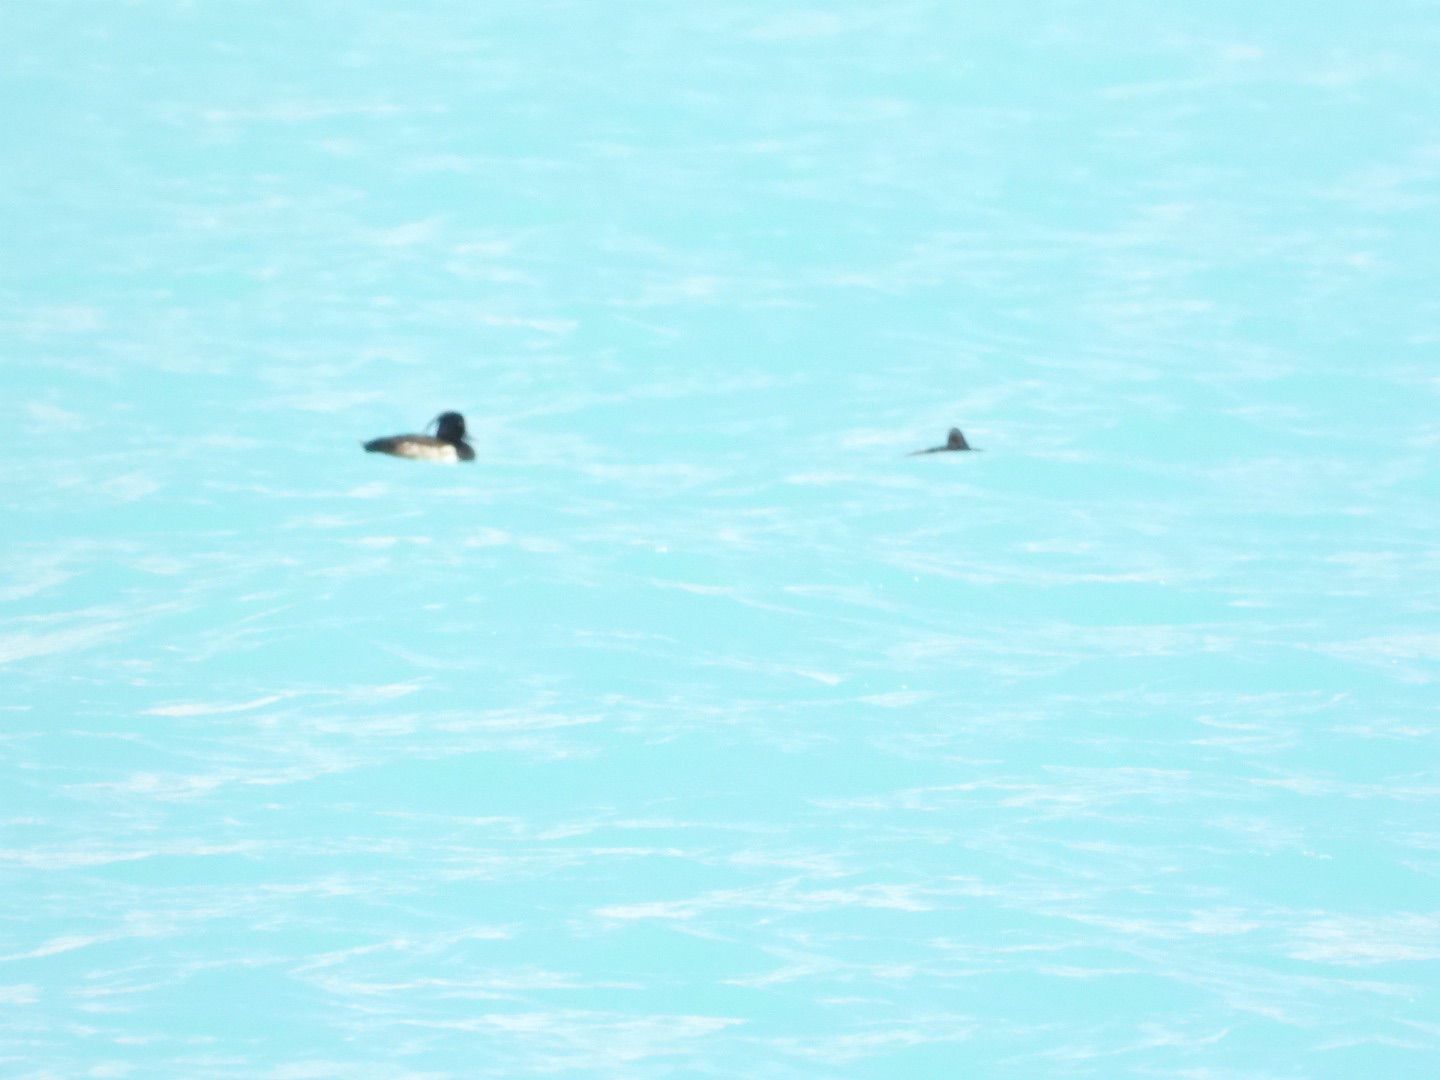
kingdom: Animalia
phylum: Chordata
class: Aves
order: Anseriformes
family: Anatidae
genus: Aythya
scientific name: Aythya fuligula
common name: Troldand
